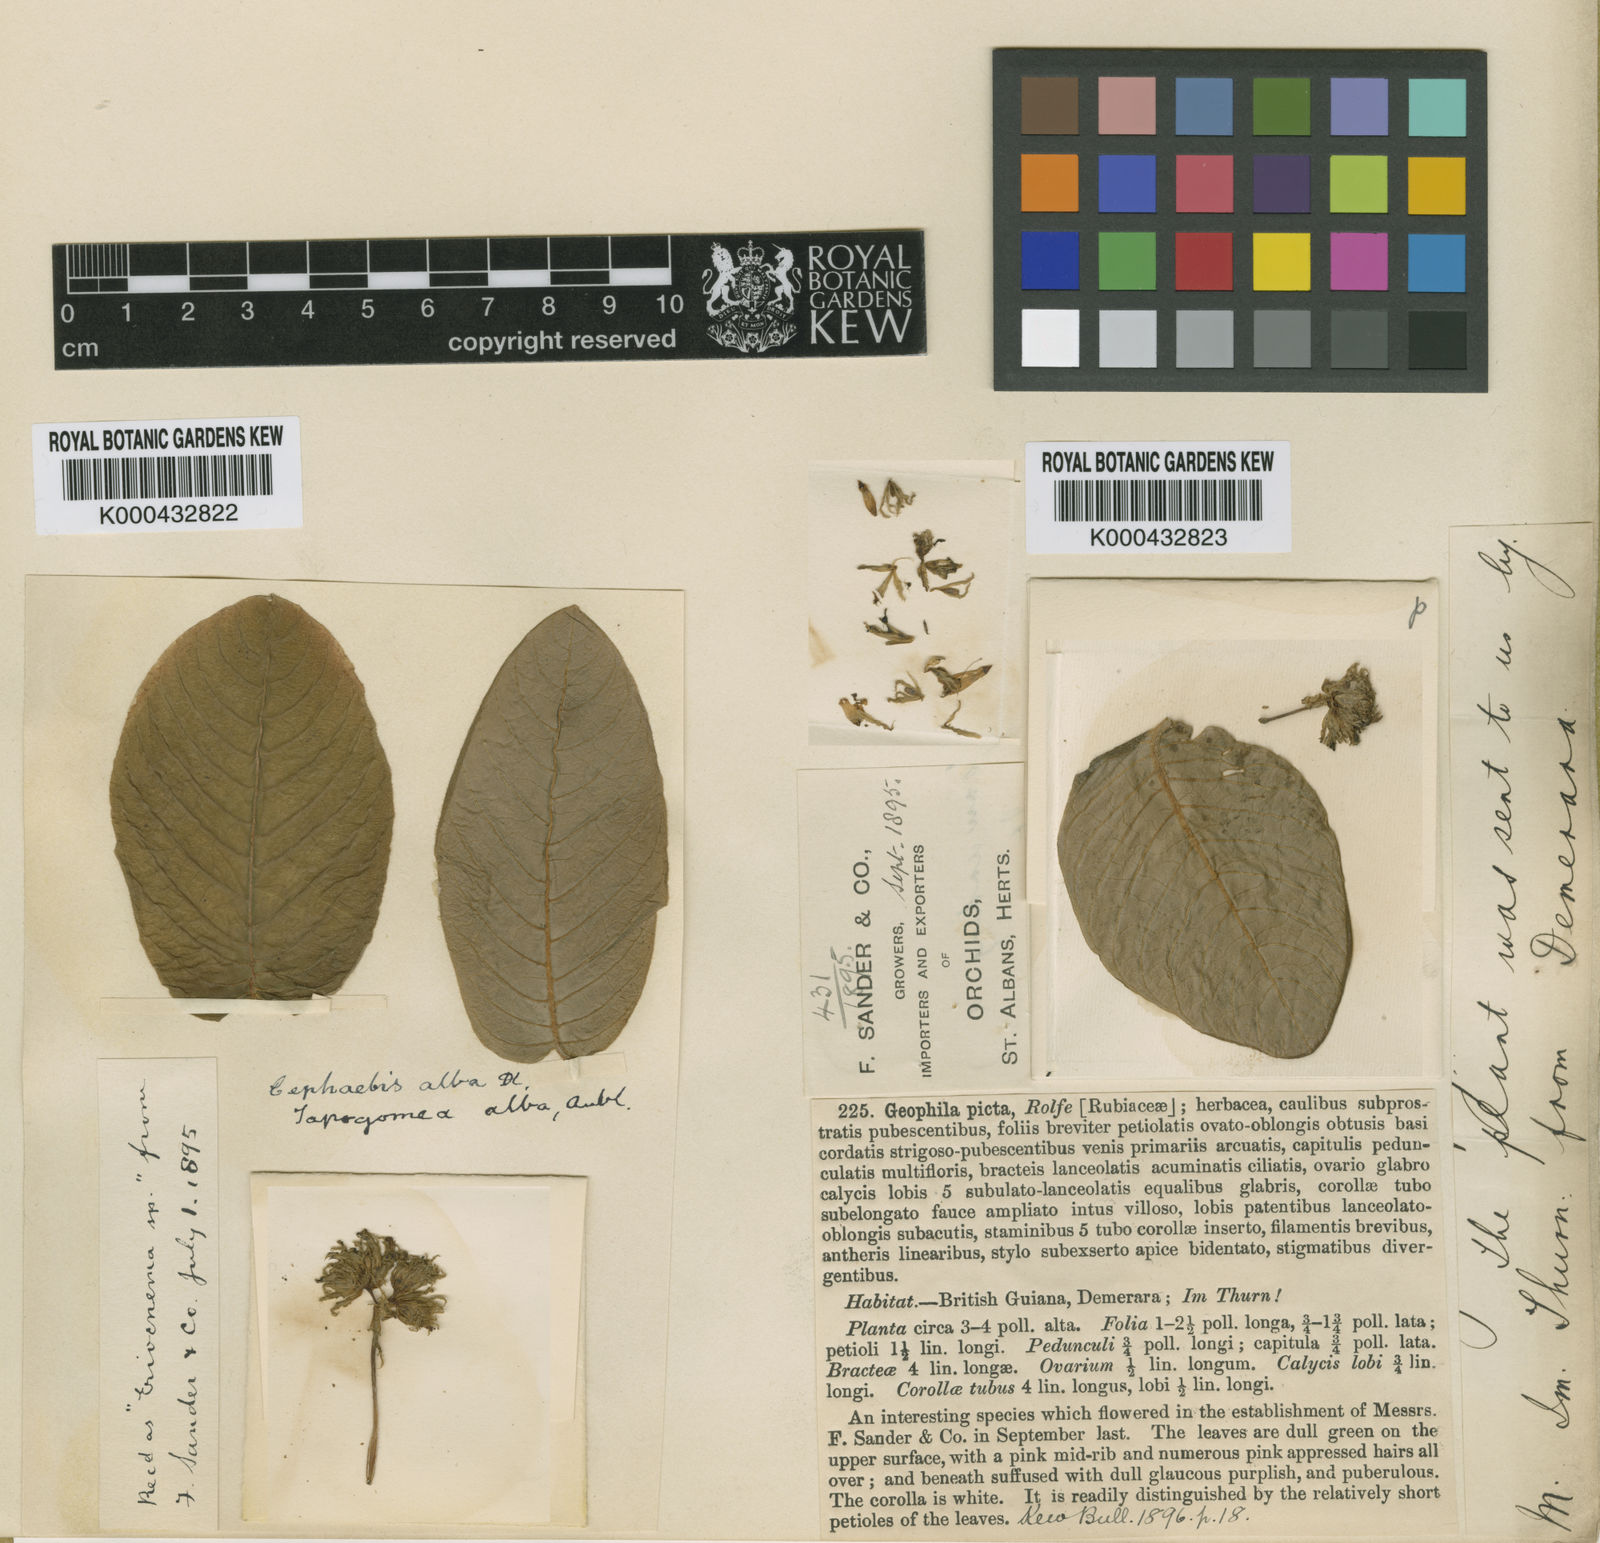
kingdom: Plantae
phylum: Tracheophyta
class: Magnoliopsida
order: Gentianales
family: Rubiaceae
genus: Palicourea
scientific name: Palicourea alba
